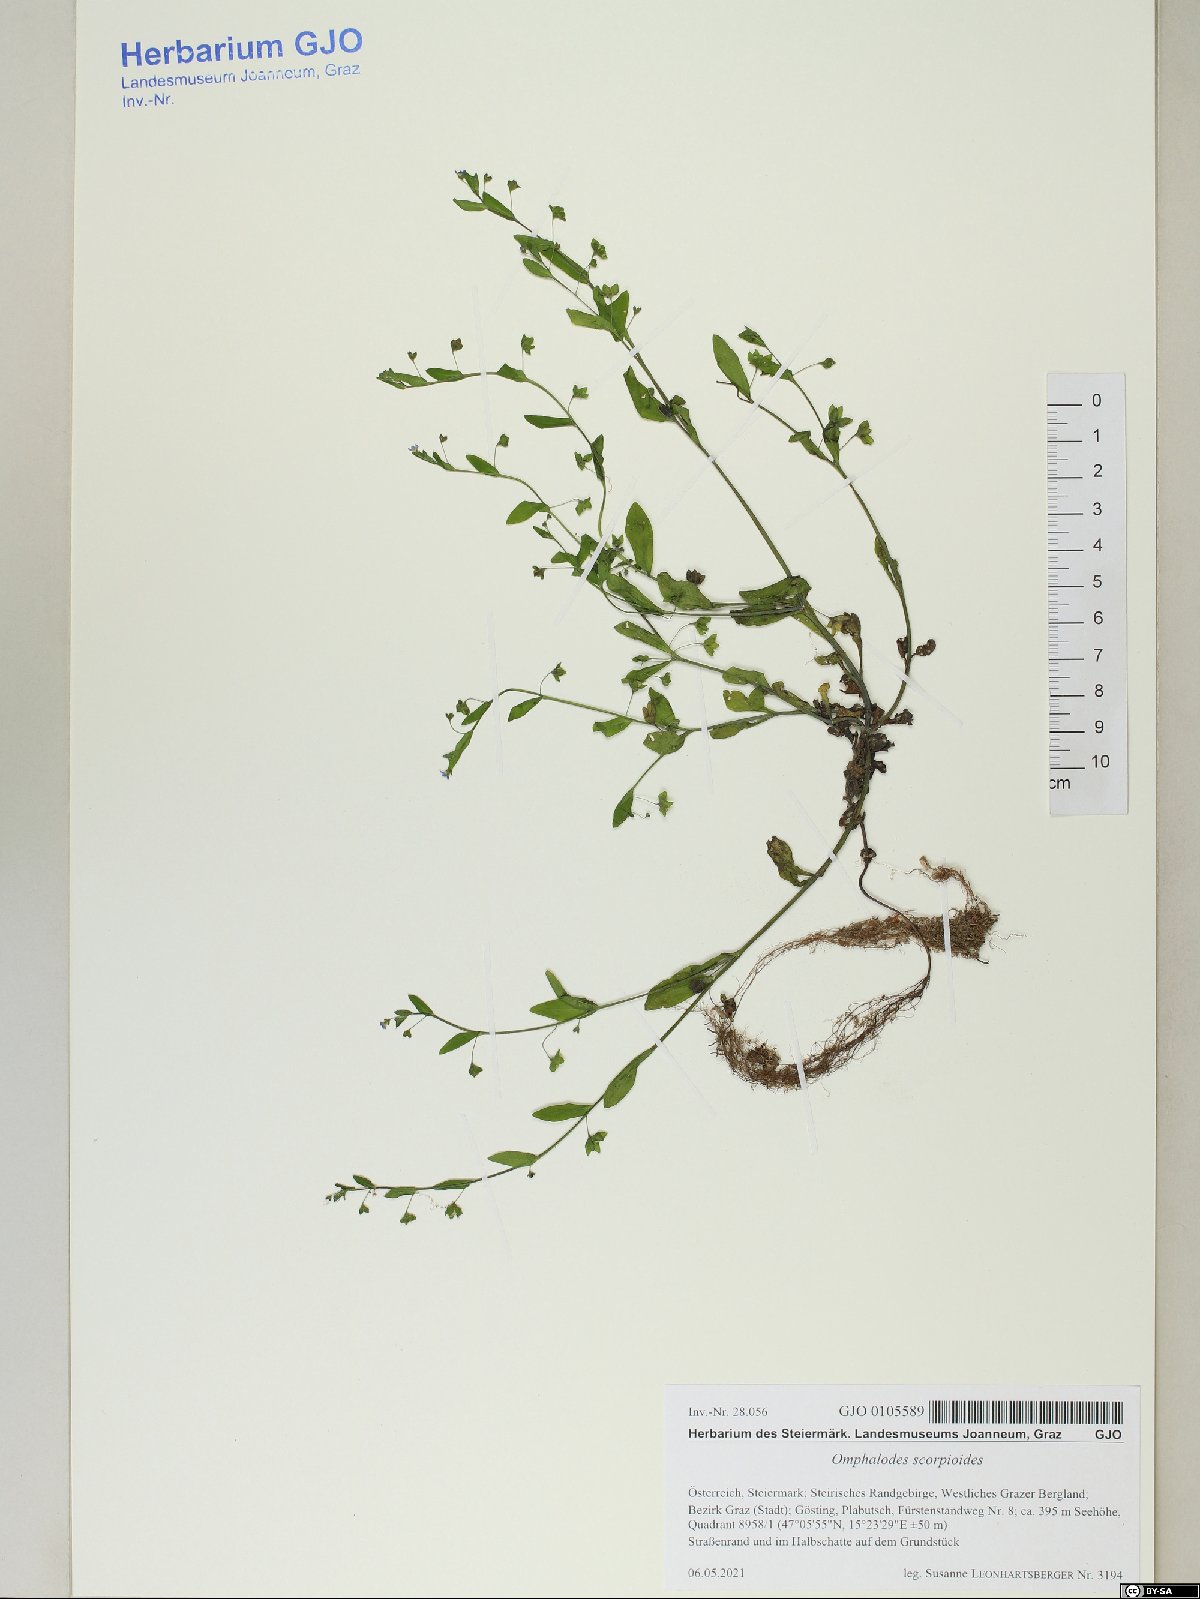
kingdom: Plantae
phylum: Tracheophyta
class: Magnoliopsida
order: Boraginales
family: Boraginaceae
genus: Memoremea
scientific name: Memoremea scorpioides
